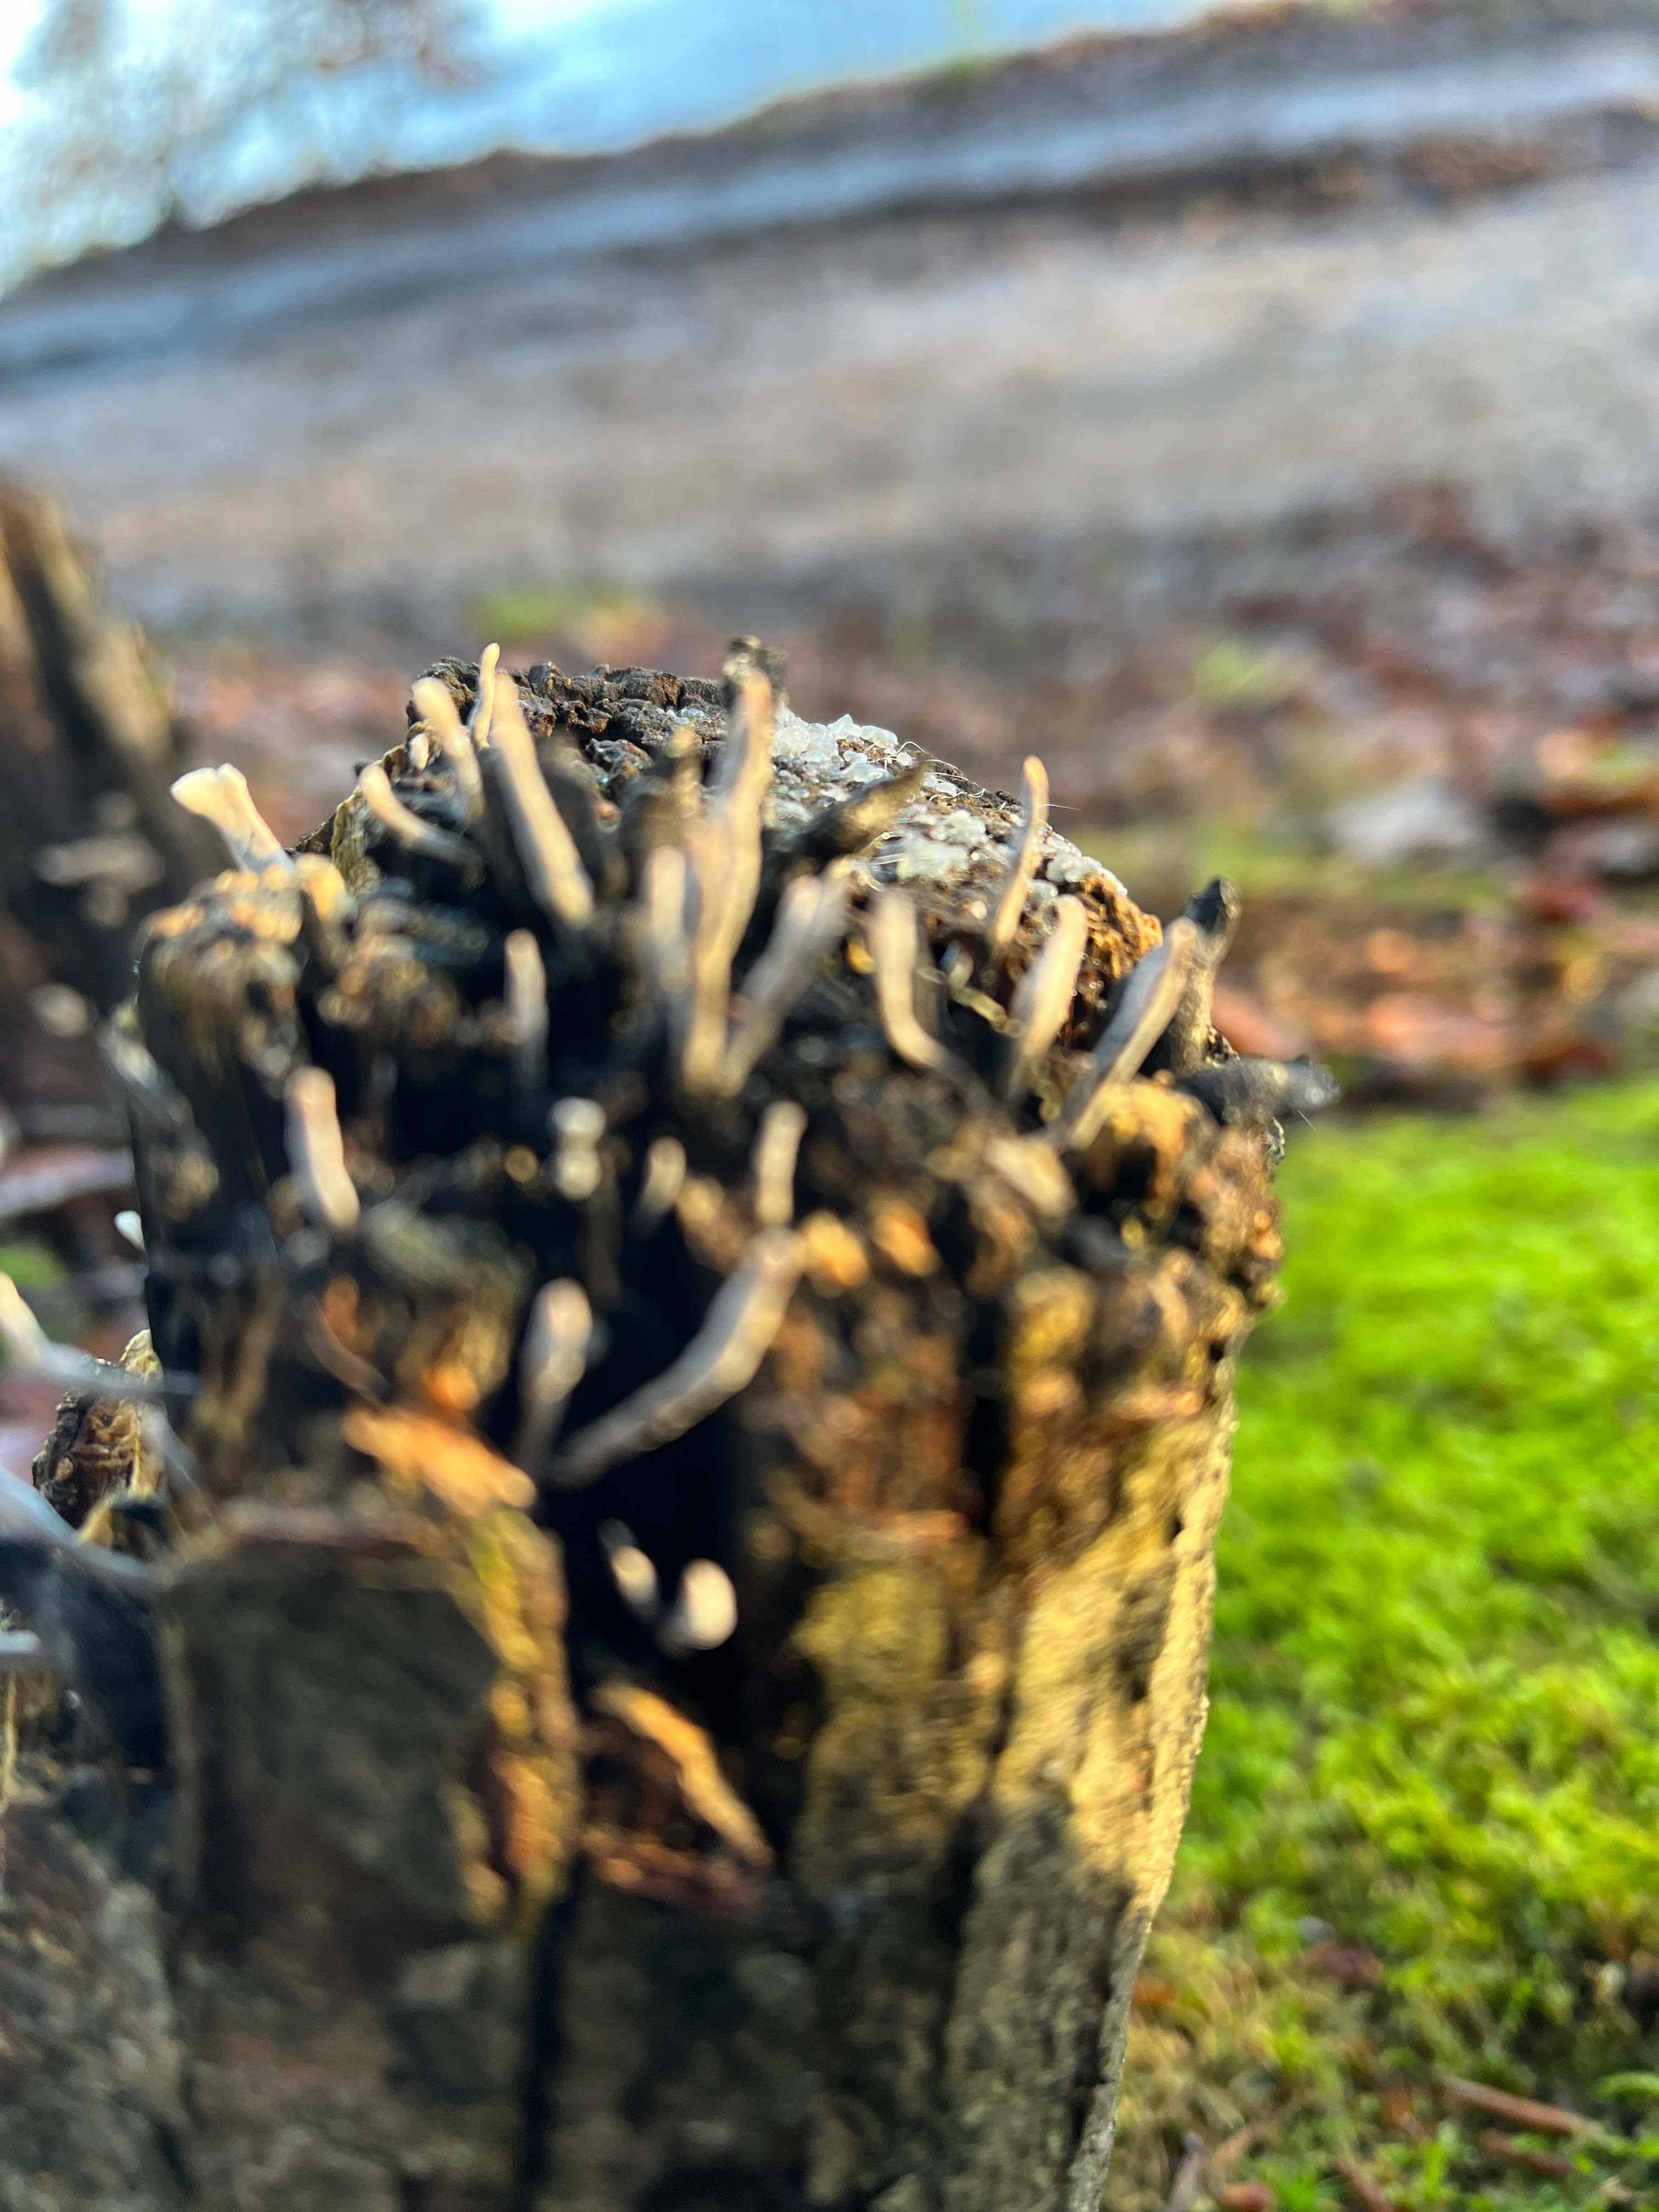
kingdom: Fungi
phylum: Ascomycota
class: Sordariomycetes
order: Xylariales
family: Xylariaceae
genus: Xylaria
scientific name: Xylaria hypoxylon
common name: grenet stødsvamp
